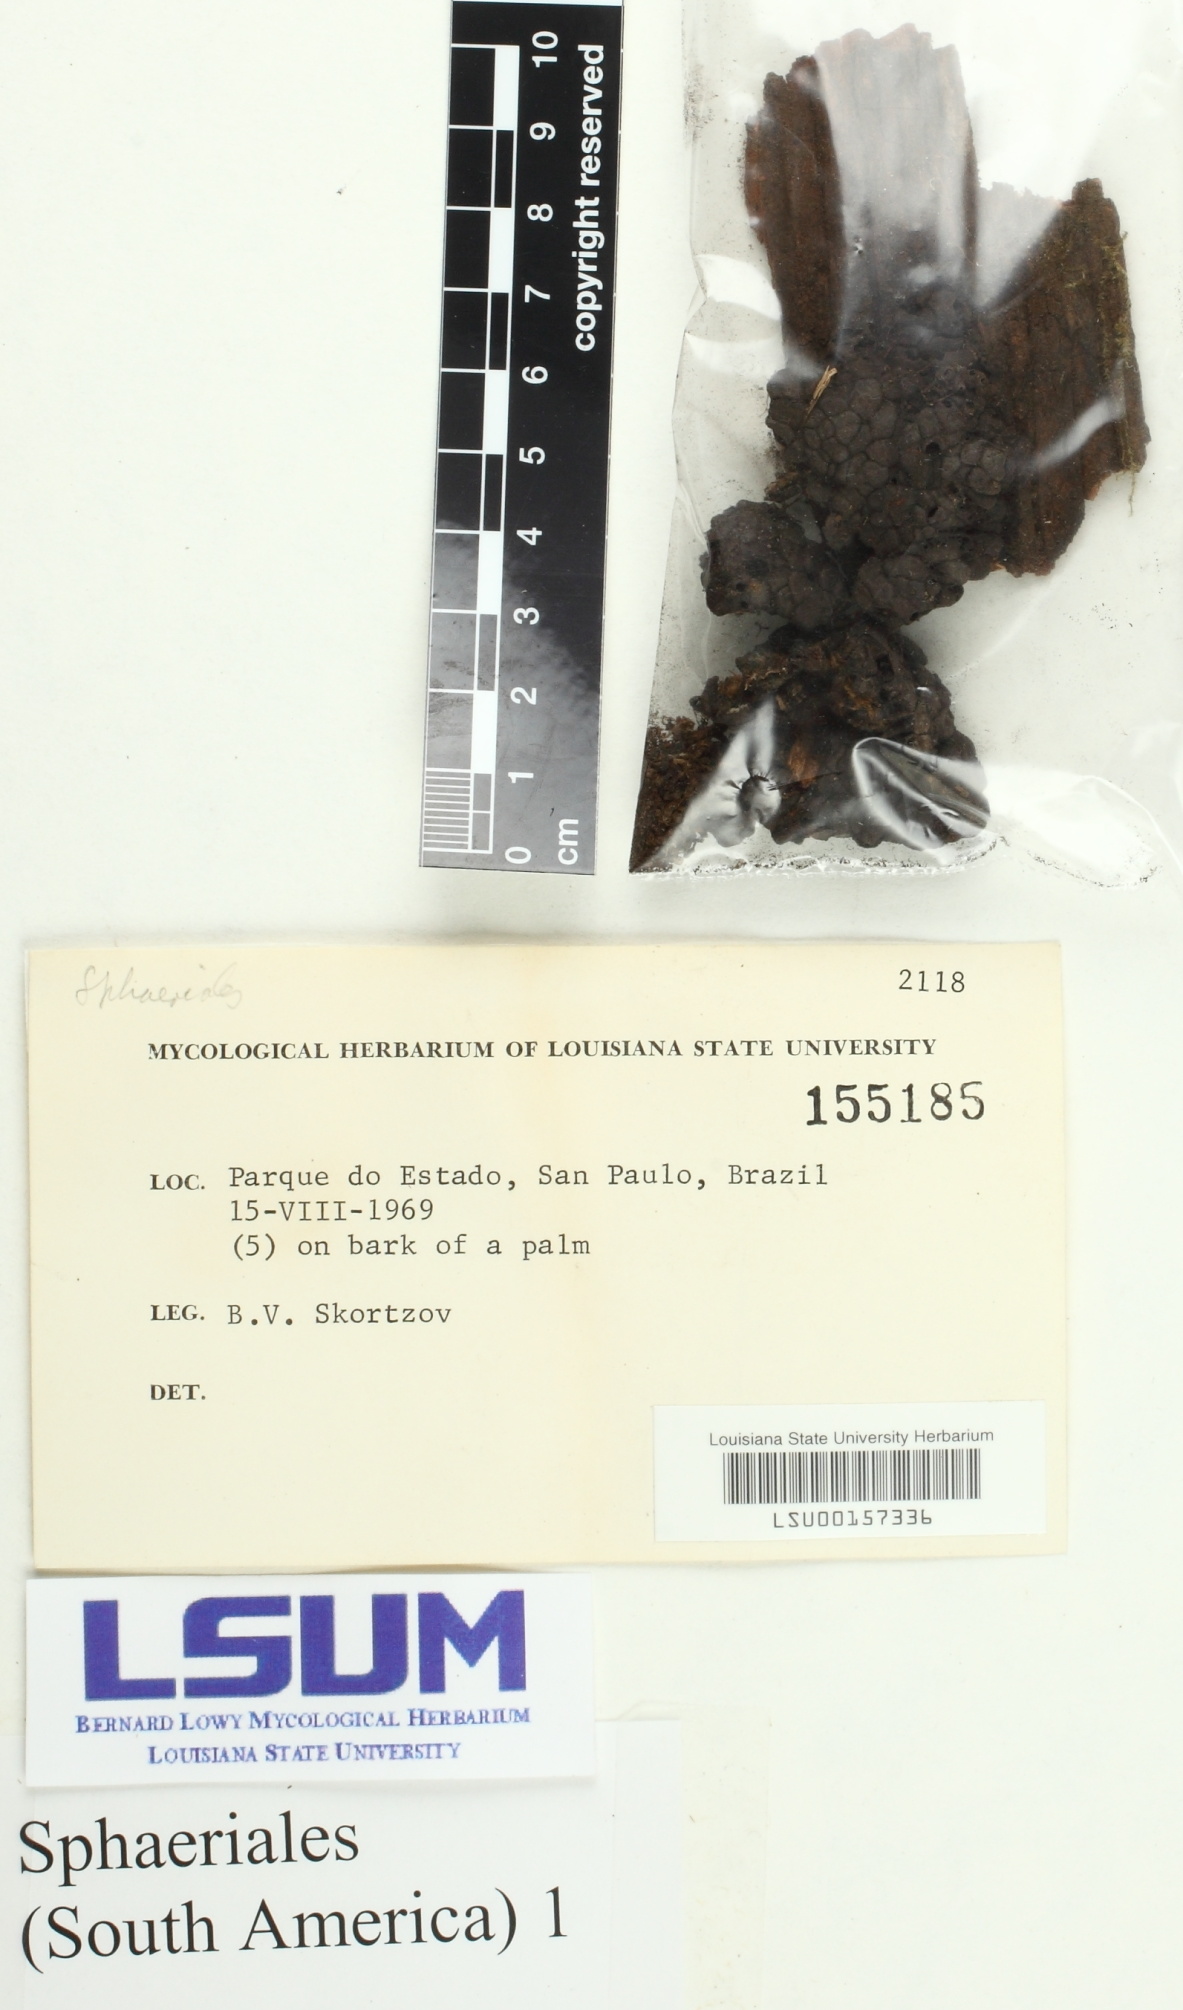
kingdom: Fungi
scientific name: Fungi
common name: Fungi
